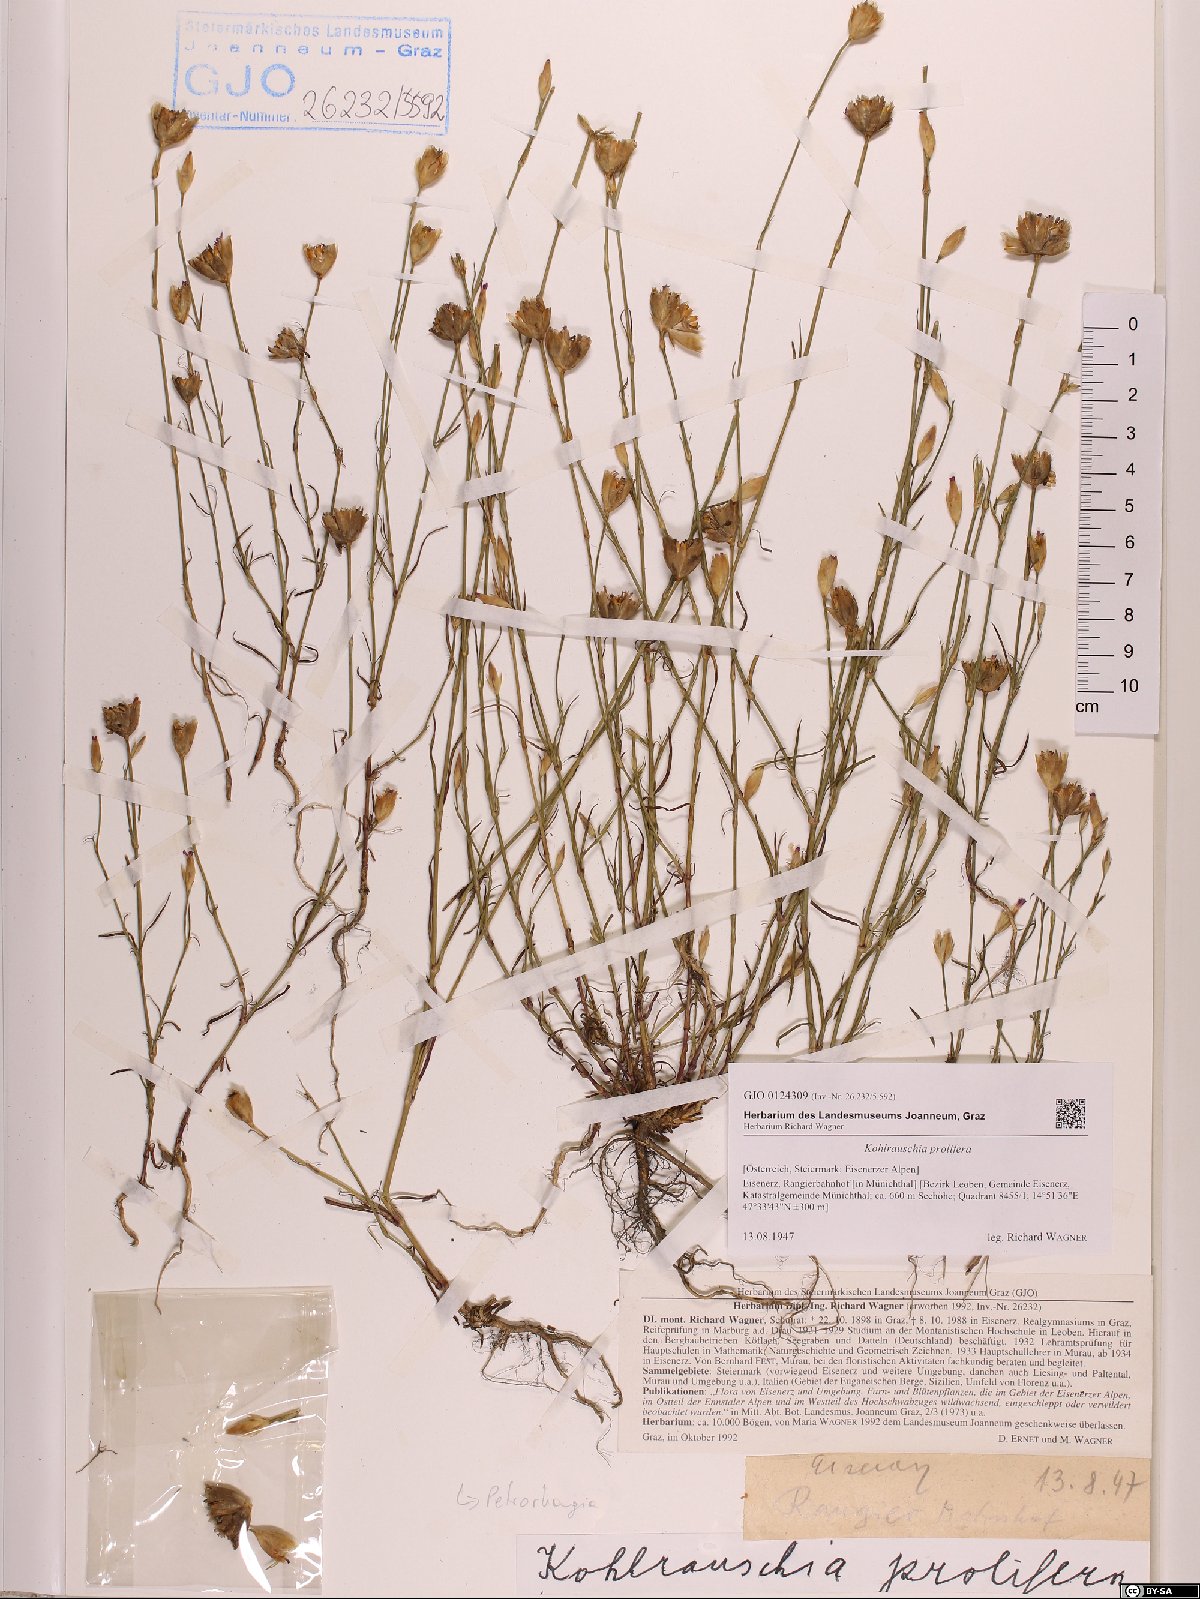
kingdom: Plantae
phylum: Tracheophyta
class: Magnoliopsida
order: Caryophyllales
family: Caryophyllaceae
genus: Petrorhagia
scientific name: Petrorhagia prolifera
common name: Proliferous pink
